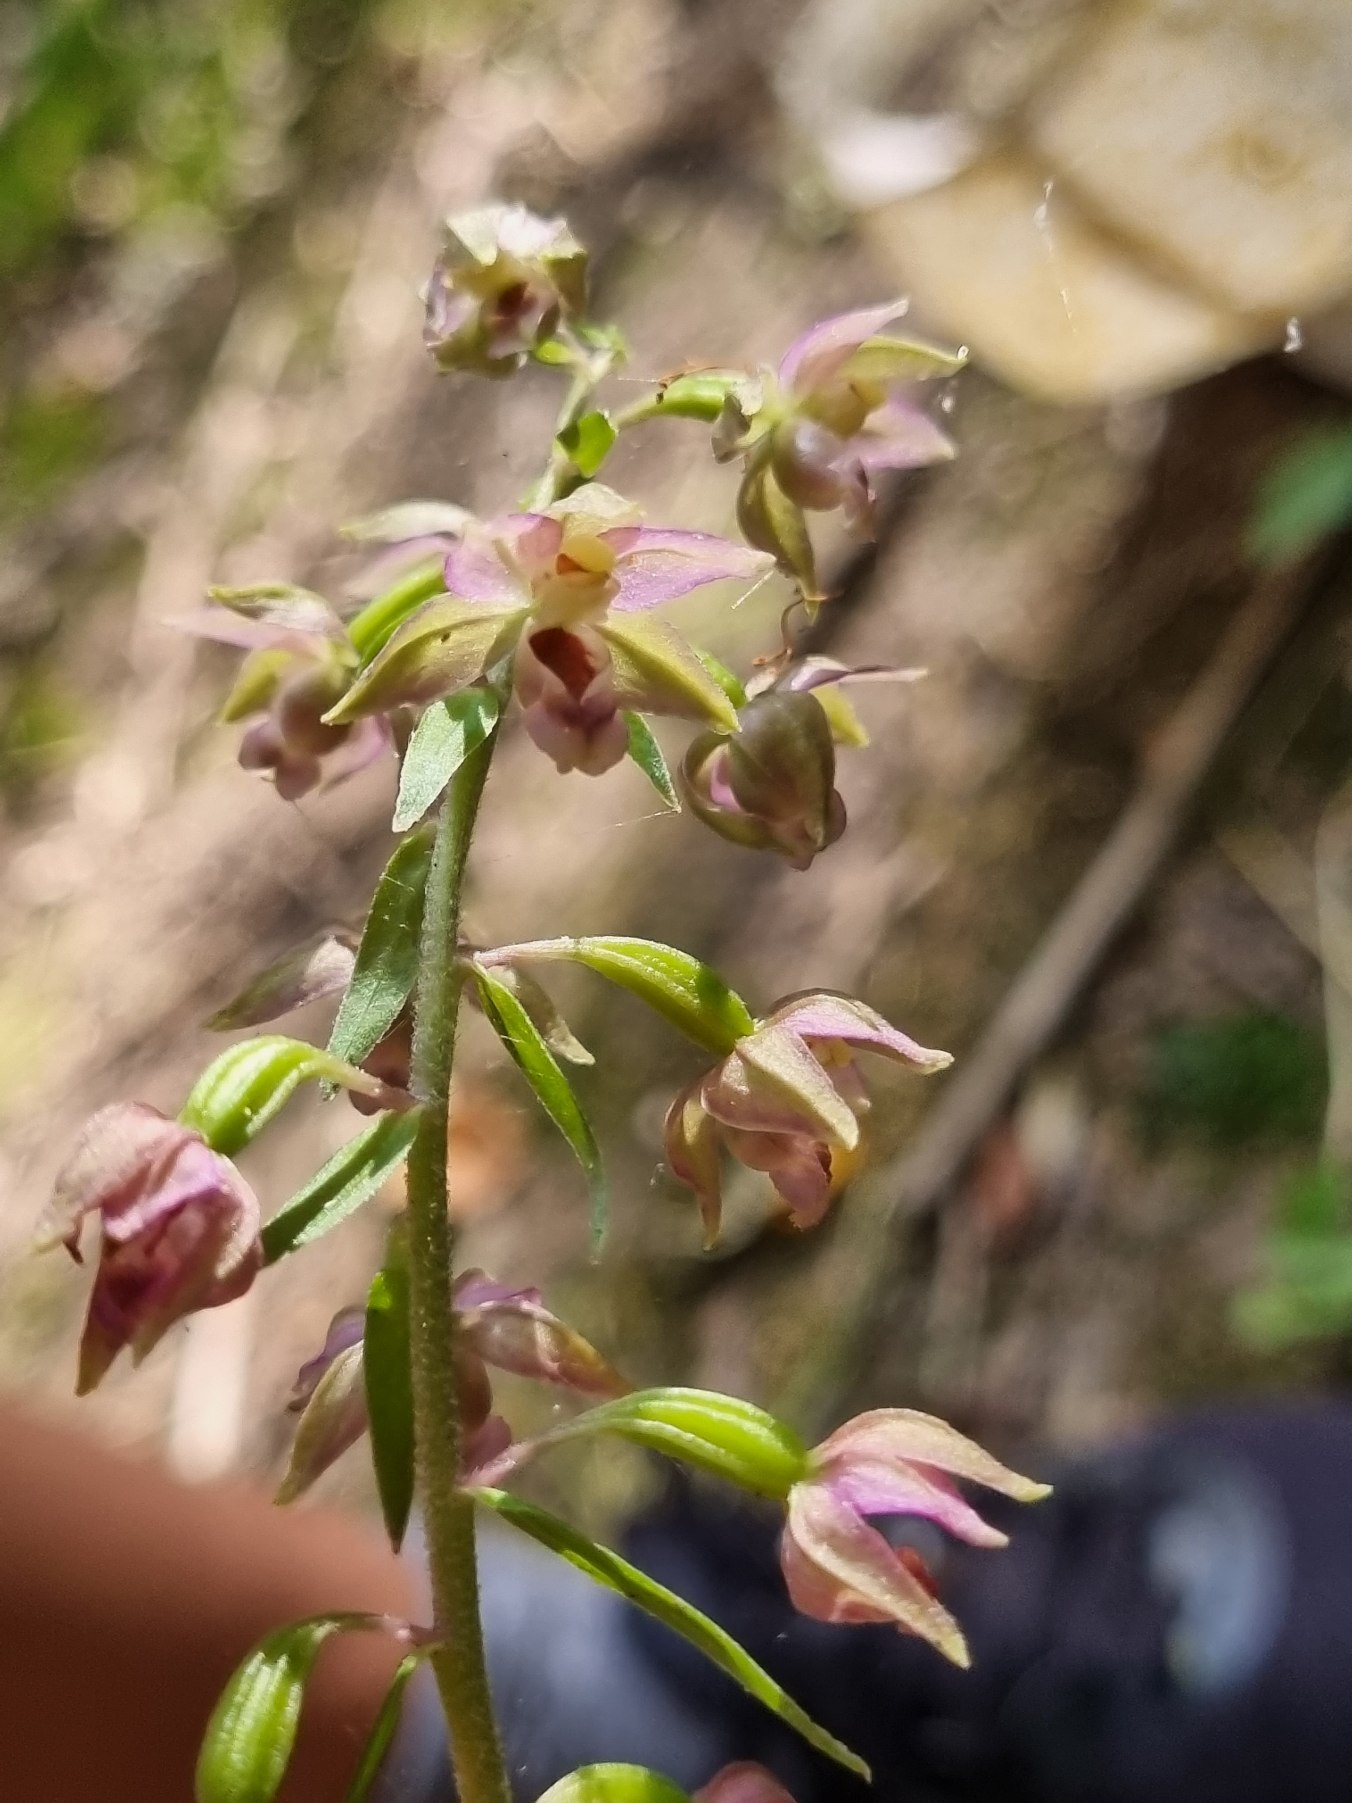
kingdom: Plantae
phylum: Tracheophyta
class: Liliopsida
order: Asparagales
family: Orchidaceae
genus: Epipactis
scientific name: Epipactis helleborine
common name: Skov-hullæbe
